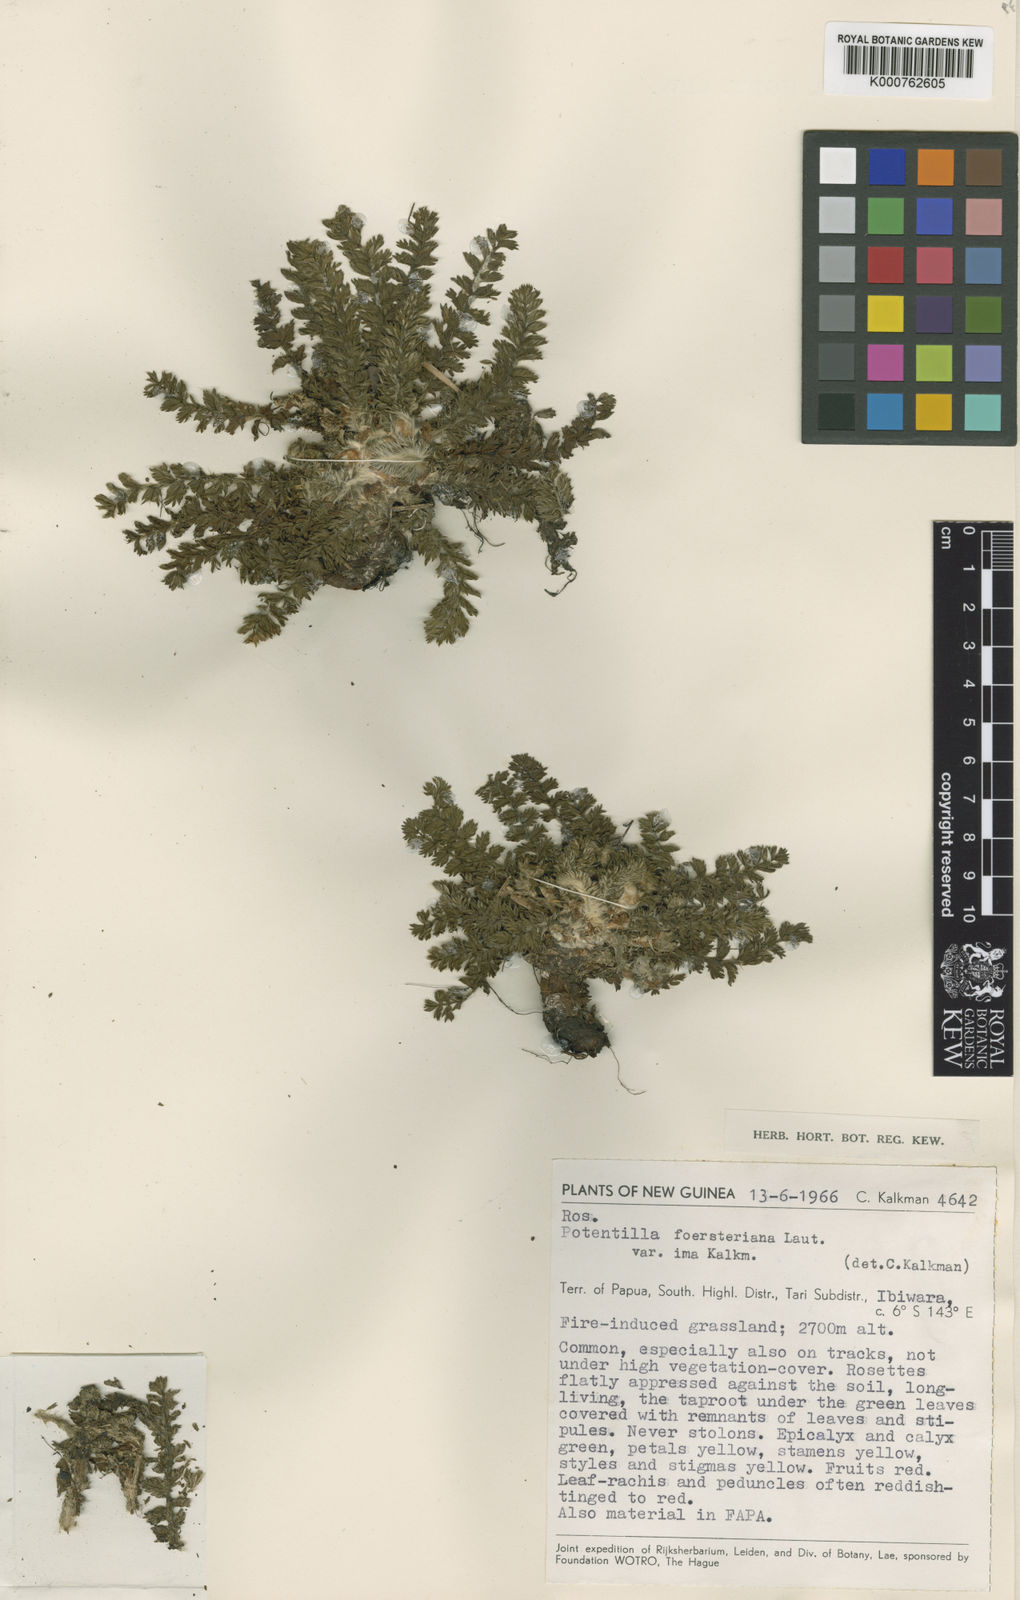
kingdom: Plantae
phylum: Tracheophyta
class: Magnoliopsida
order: Rosales
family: Rosaceae
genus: Potentilla
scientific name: Potentilla foersteriana
